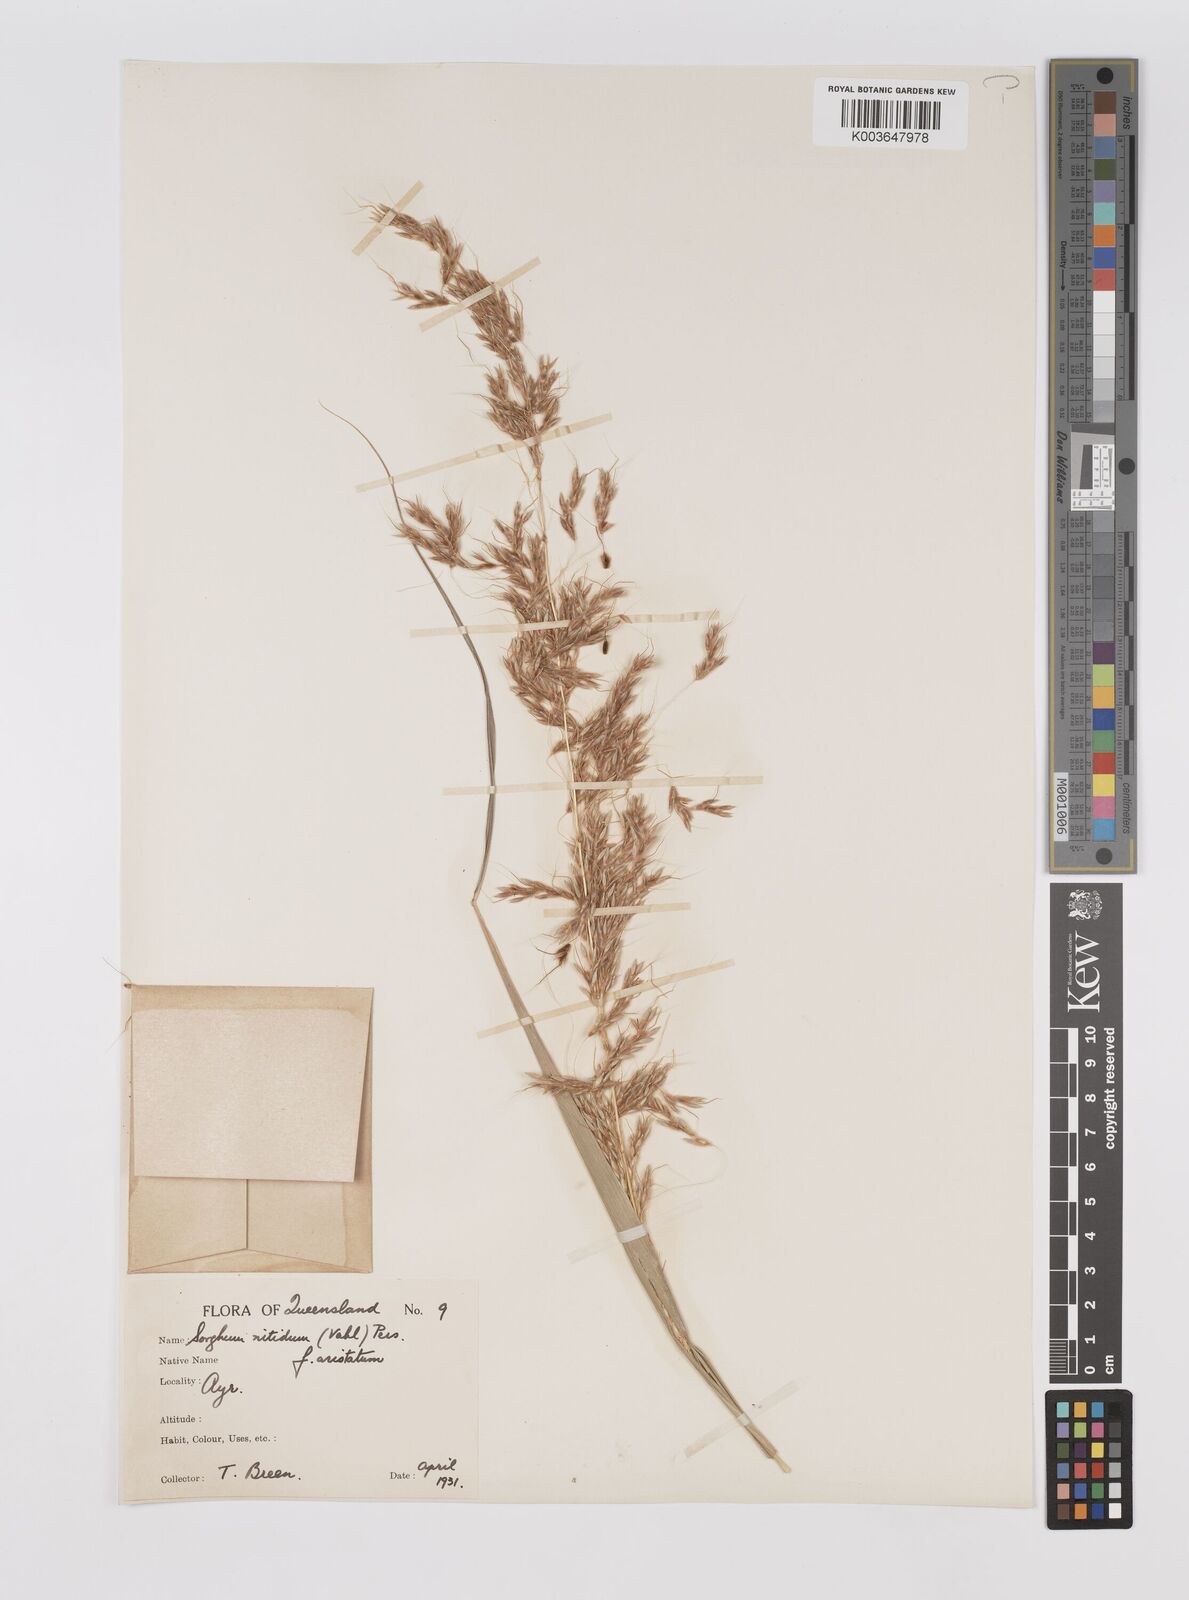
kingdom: Plantae
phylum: Tracheophyta
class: Liliopsida
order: Poales
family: Poaceae
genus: Sorghum
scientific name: Sorghum nitidum
